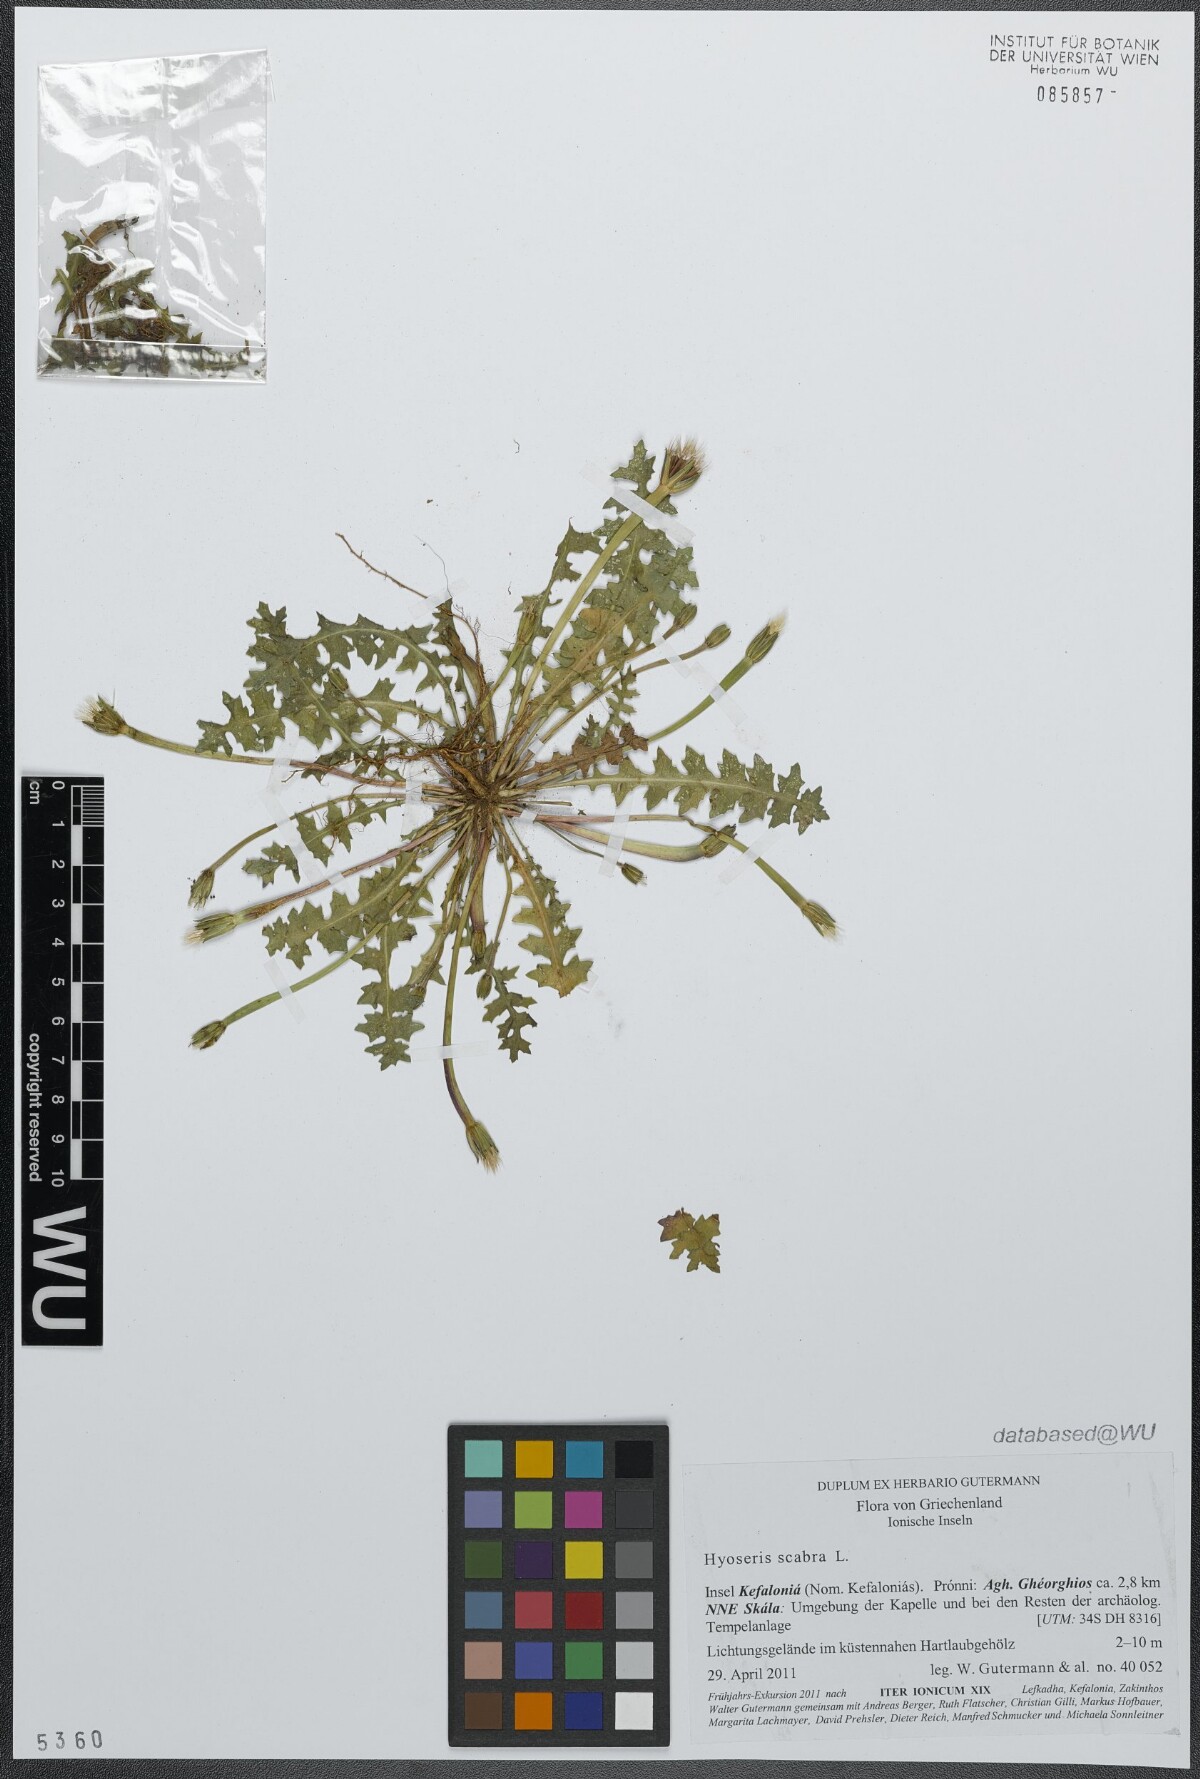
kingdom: Plantae
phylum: Tracheophyta
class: Magnoliopsida
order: Asterales
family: Asteraceae
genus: Hyoseris
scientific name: Hyoseris scabra
